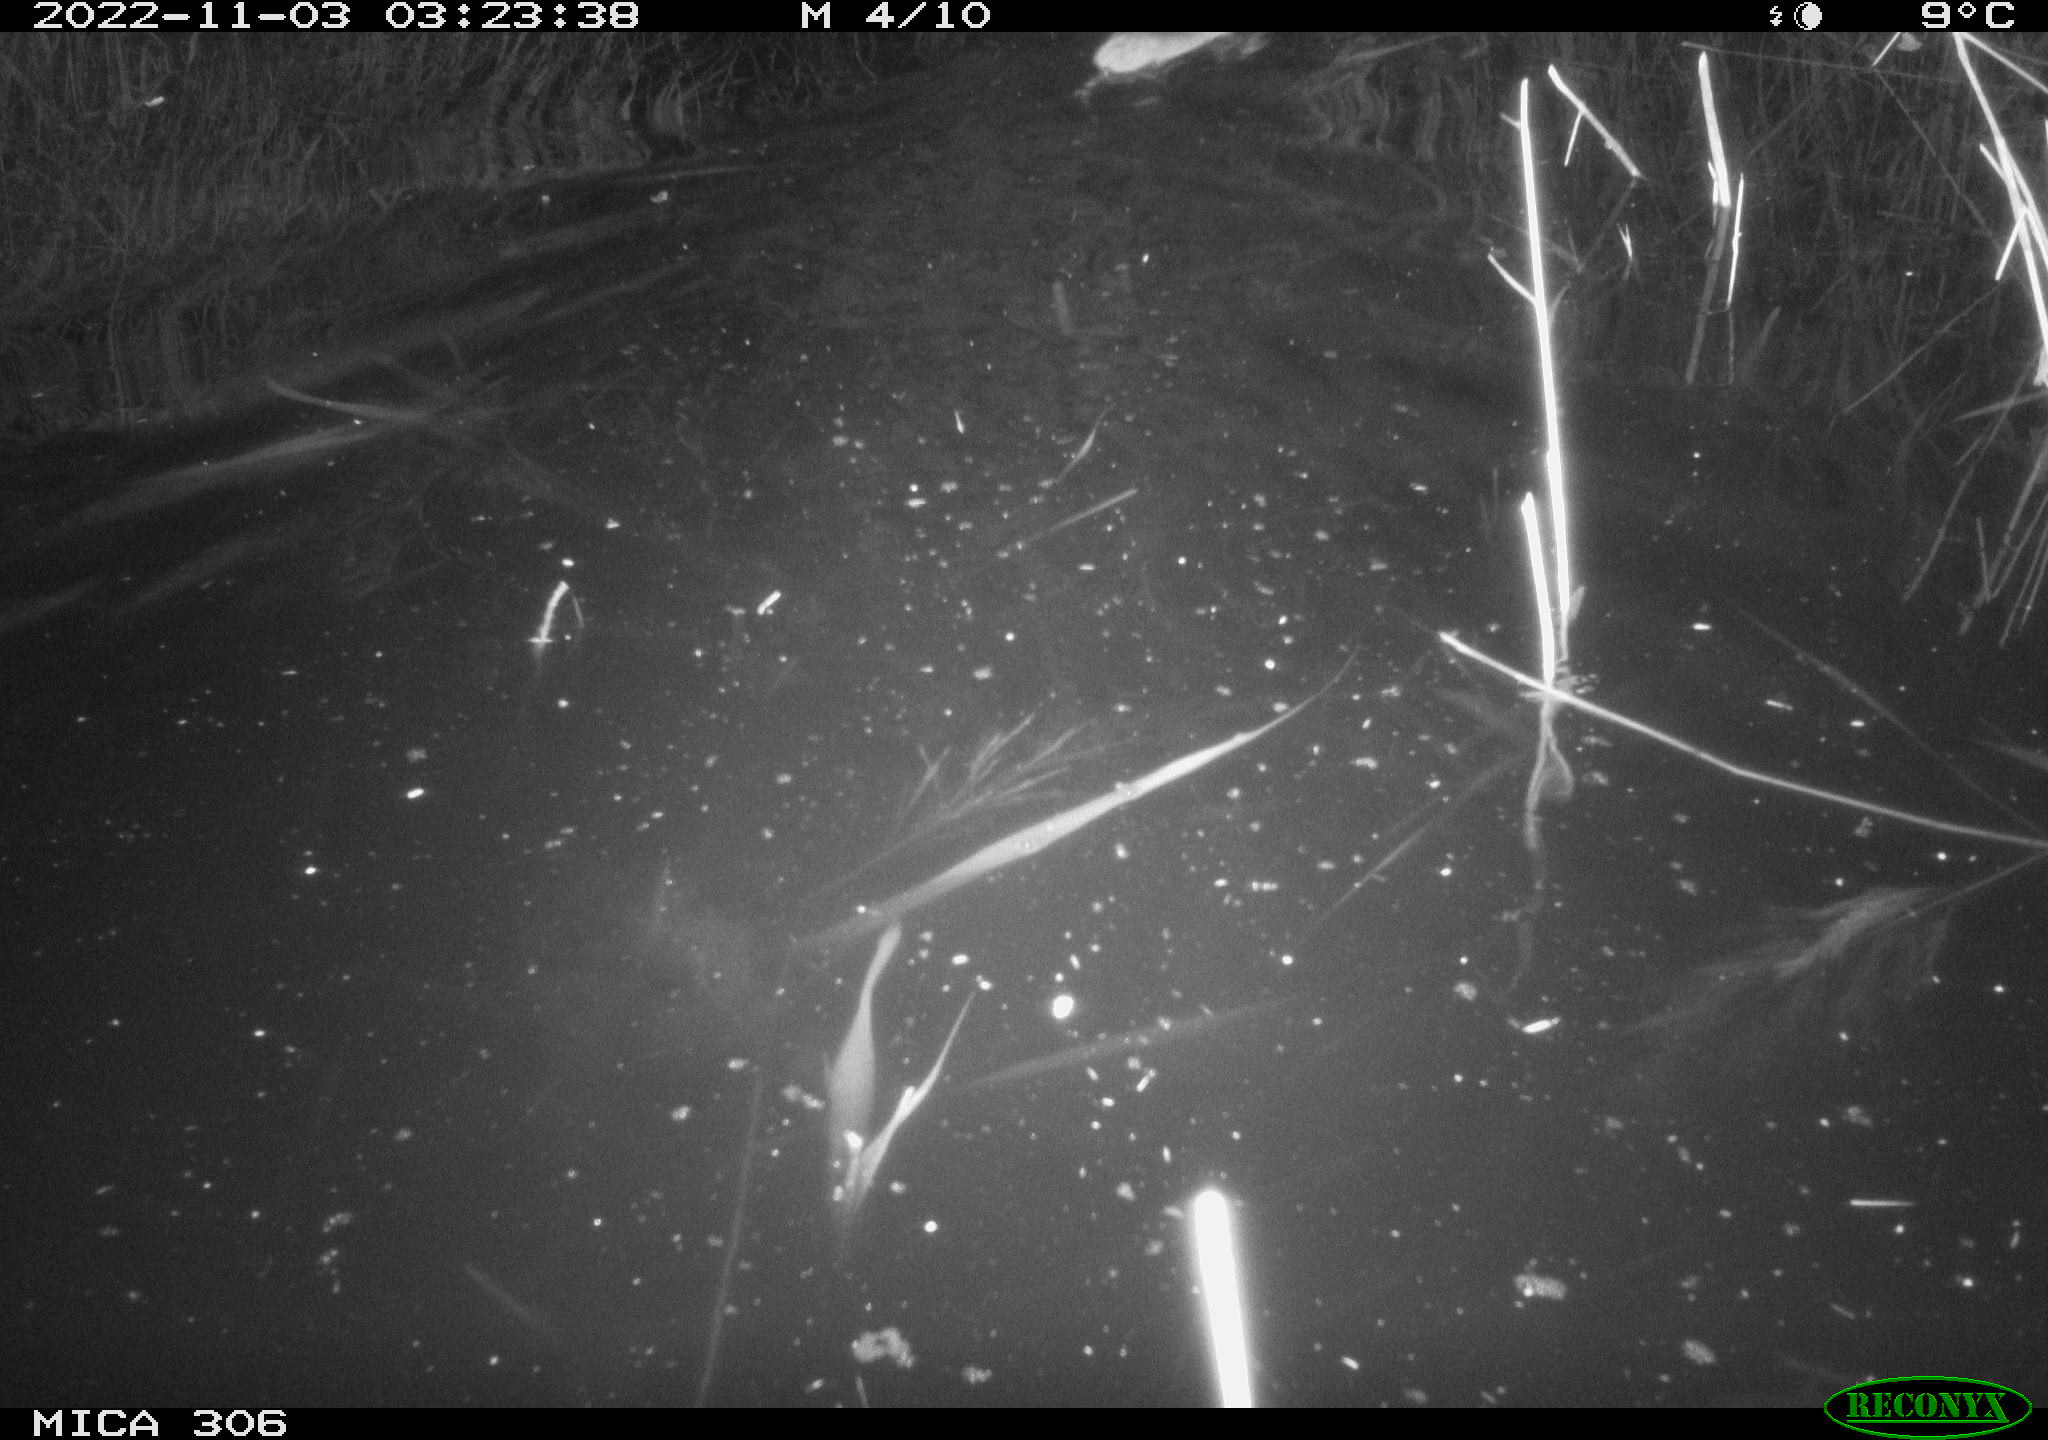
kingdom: Animalia
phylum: Chordata
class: Mammalia
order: Rodentia
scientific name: Rodentia
